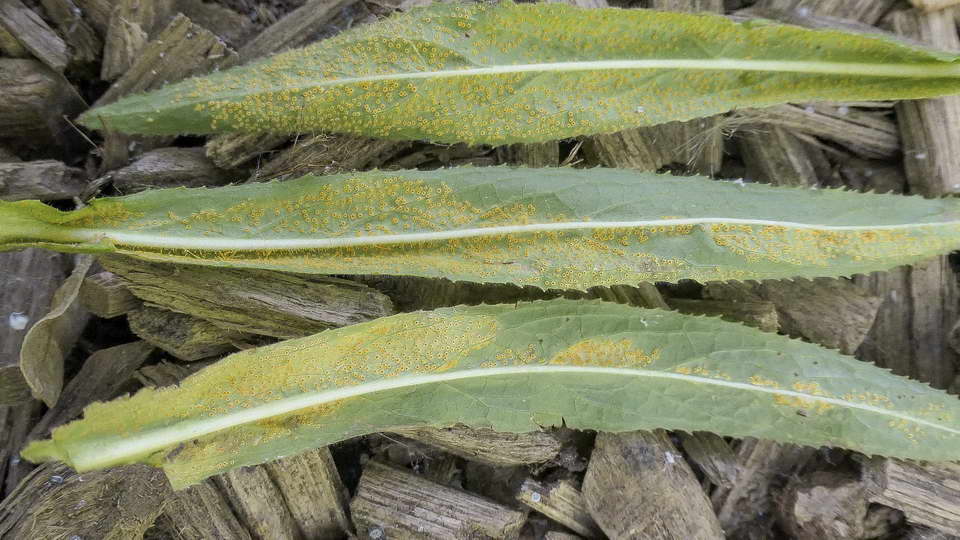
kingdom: Fungi
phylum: Basidiomycota
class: Pucciniomycetes
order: Pucciniales
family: Pucciniaceae
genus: Puccinia
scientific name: Puccinia pulverulenta
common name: dueurt-tvecellerust
